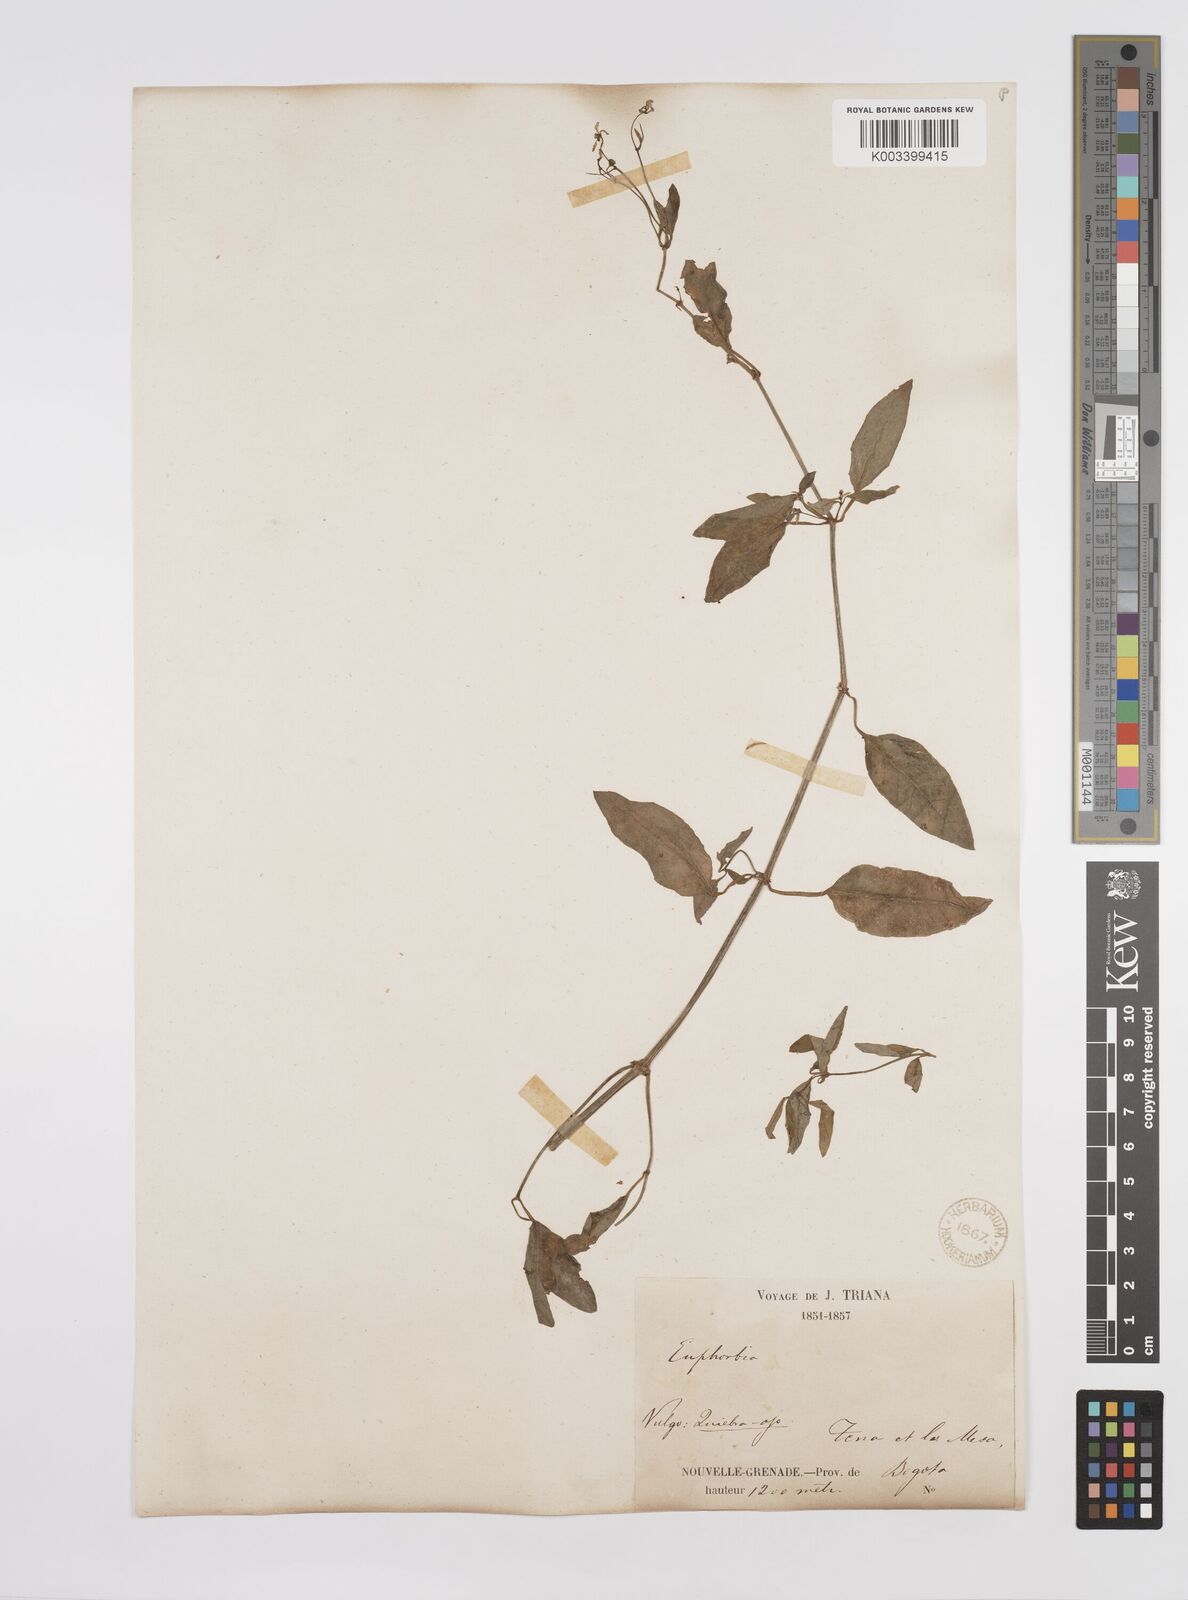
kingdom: Plantae
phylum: Tracheophyta
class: Magnoliopsida
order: Malpighiales
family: Euphorbiaceae
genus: Euphorbia
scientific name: Euphorbia
